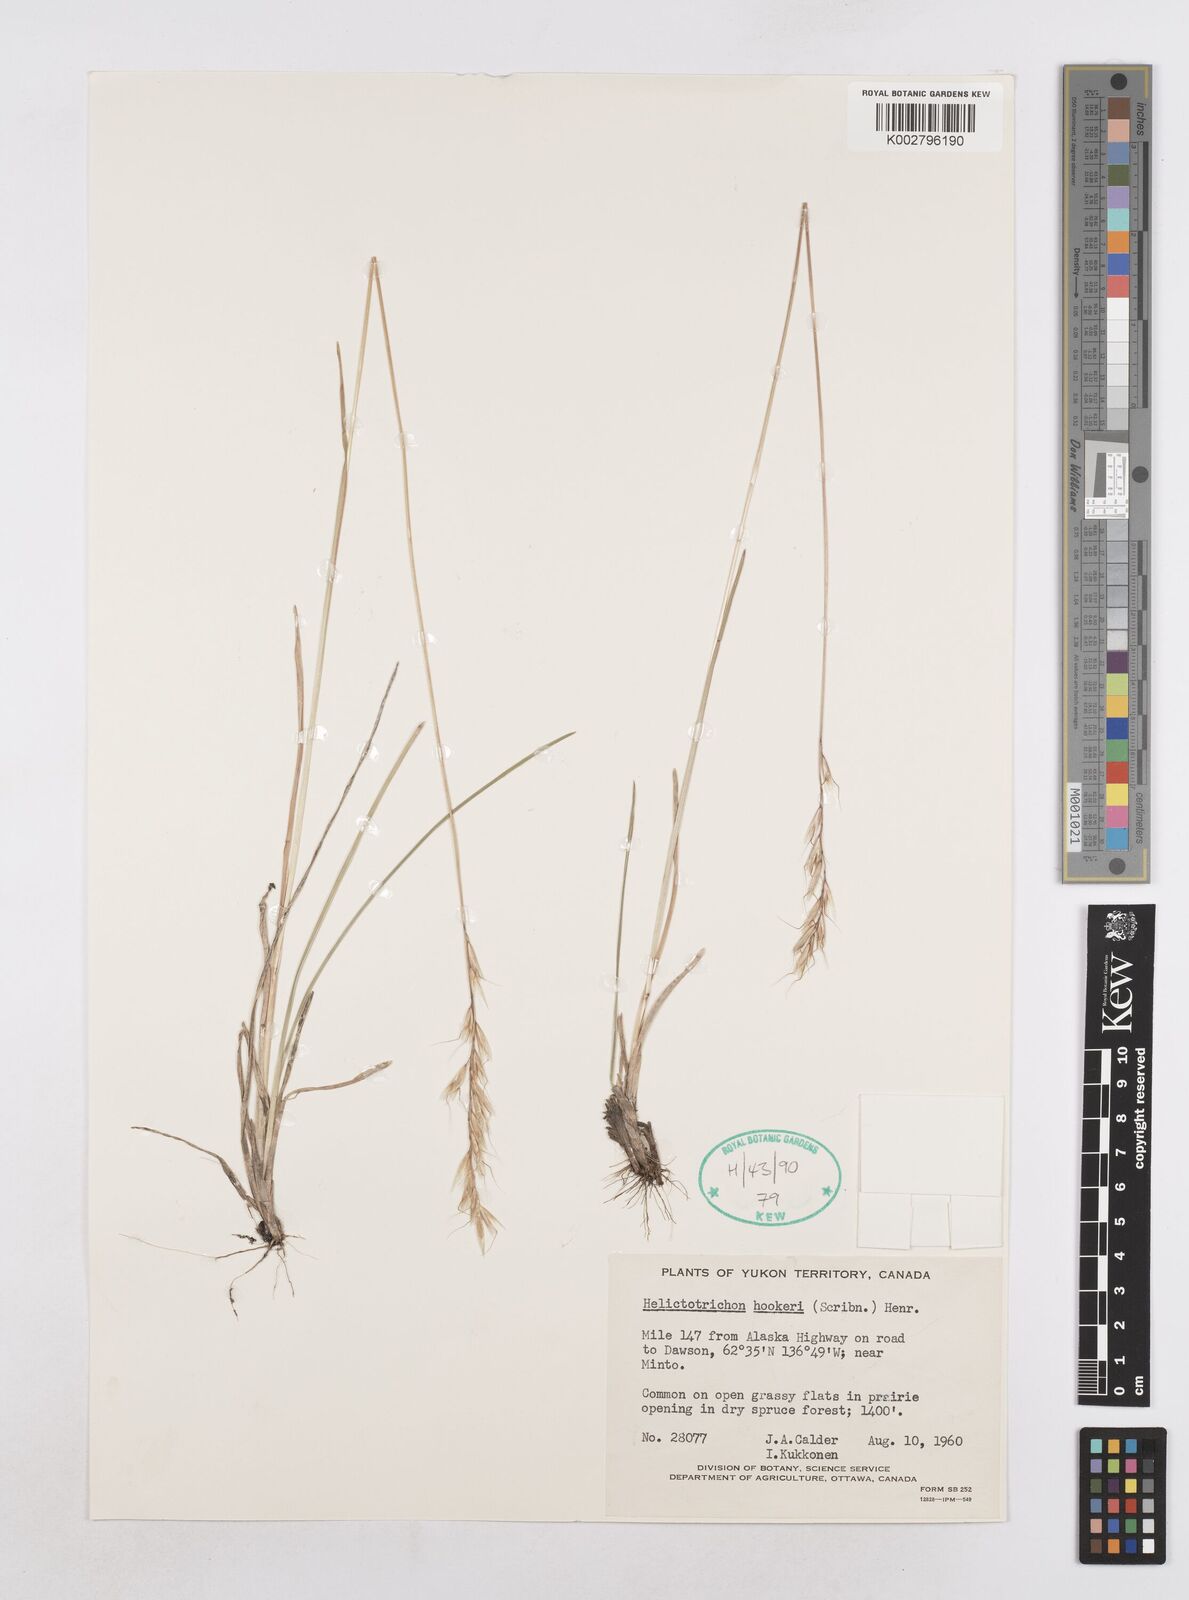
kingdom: Plantae
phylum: Tracheophyta
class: Liliopsida
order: Poales
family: Poaceae
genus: Helictochloa
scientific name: Helictochloa hookeri
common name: Hooker's alpine oatgrass
